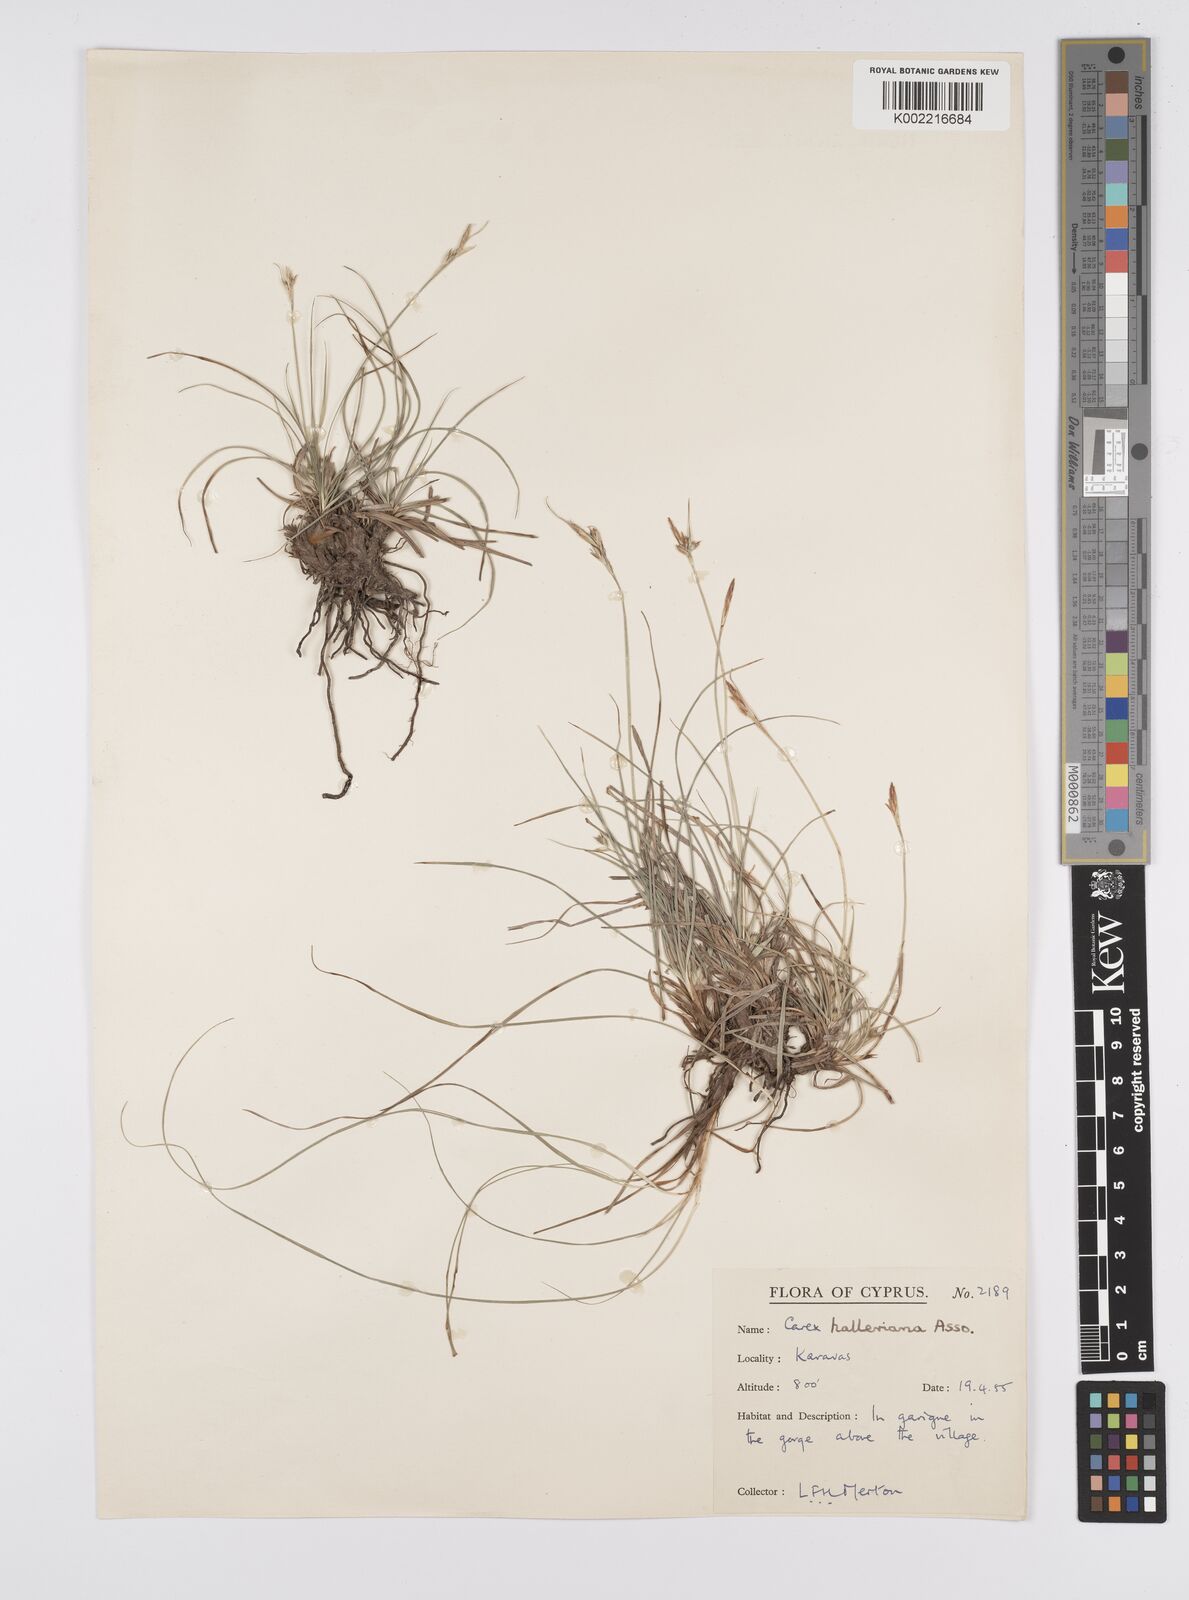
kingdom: Plantae
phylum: Tracheophyta
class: Liliopsida
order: Poales
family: Cyperaceae
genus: Carex
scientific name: Carex halleriana
